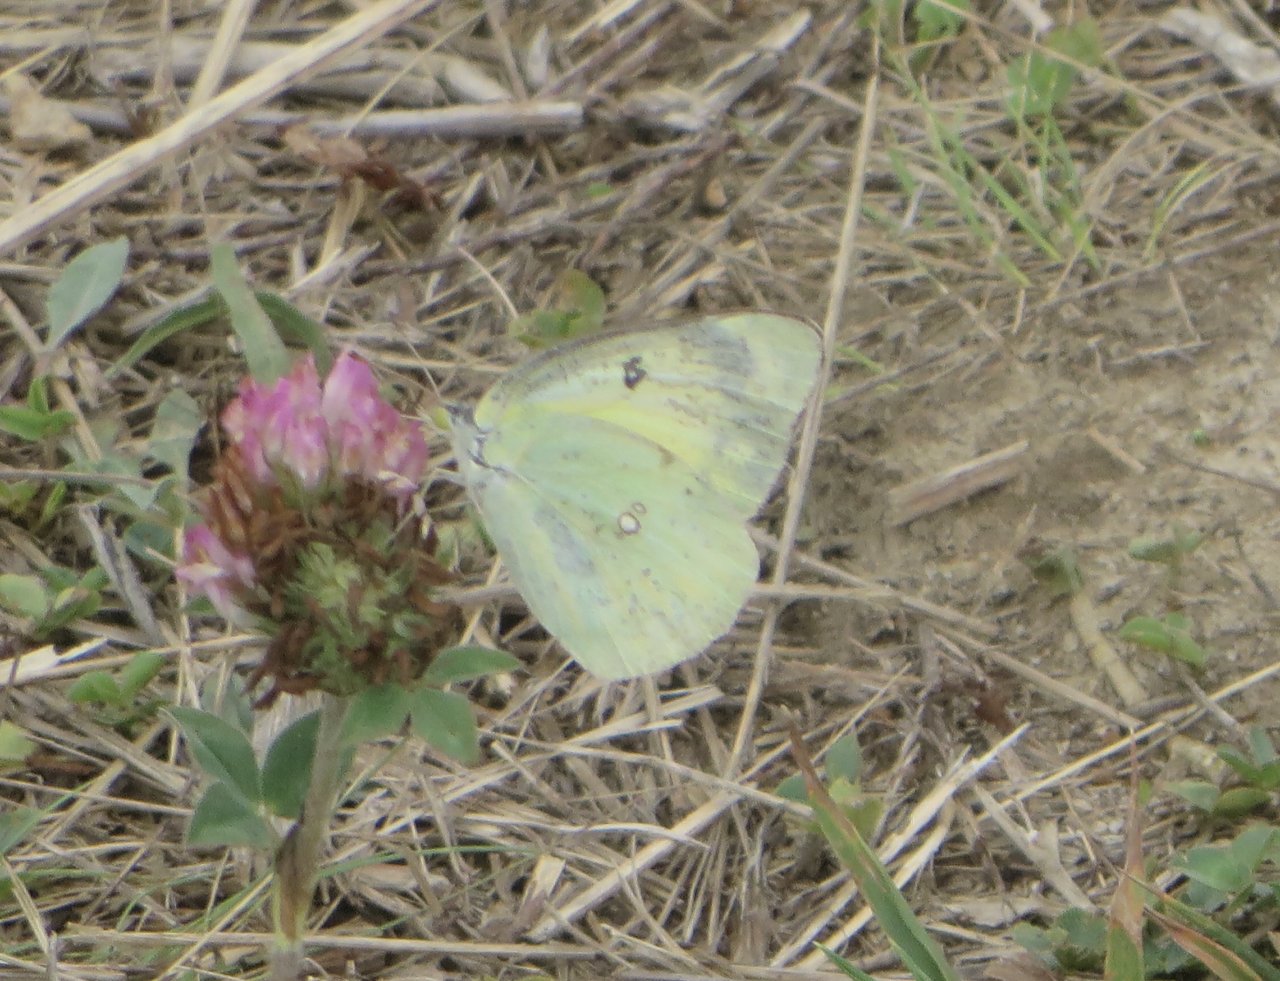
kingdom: Animalia
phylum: Arthropoda
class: Insecta
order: Lepidoptera
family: Pieridae
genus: Colias
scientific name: Colias eurytheme
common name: Orange Sulphur
